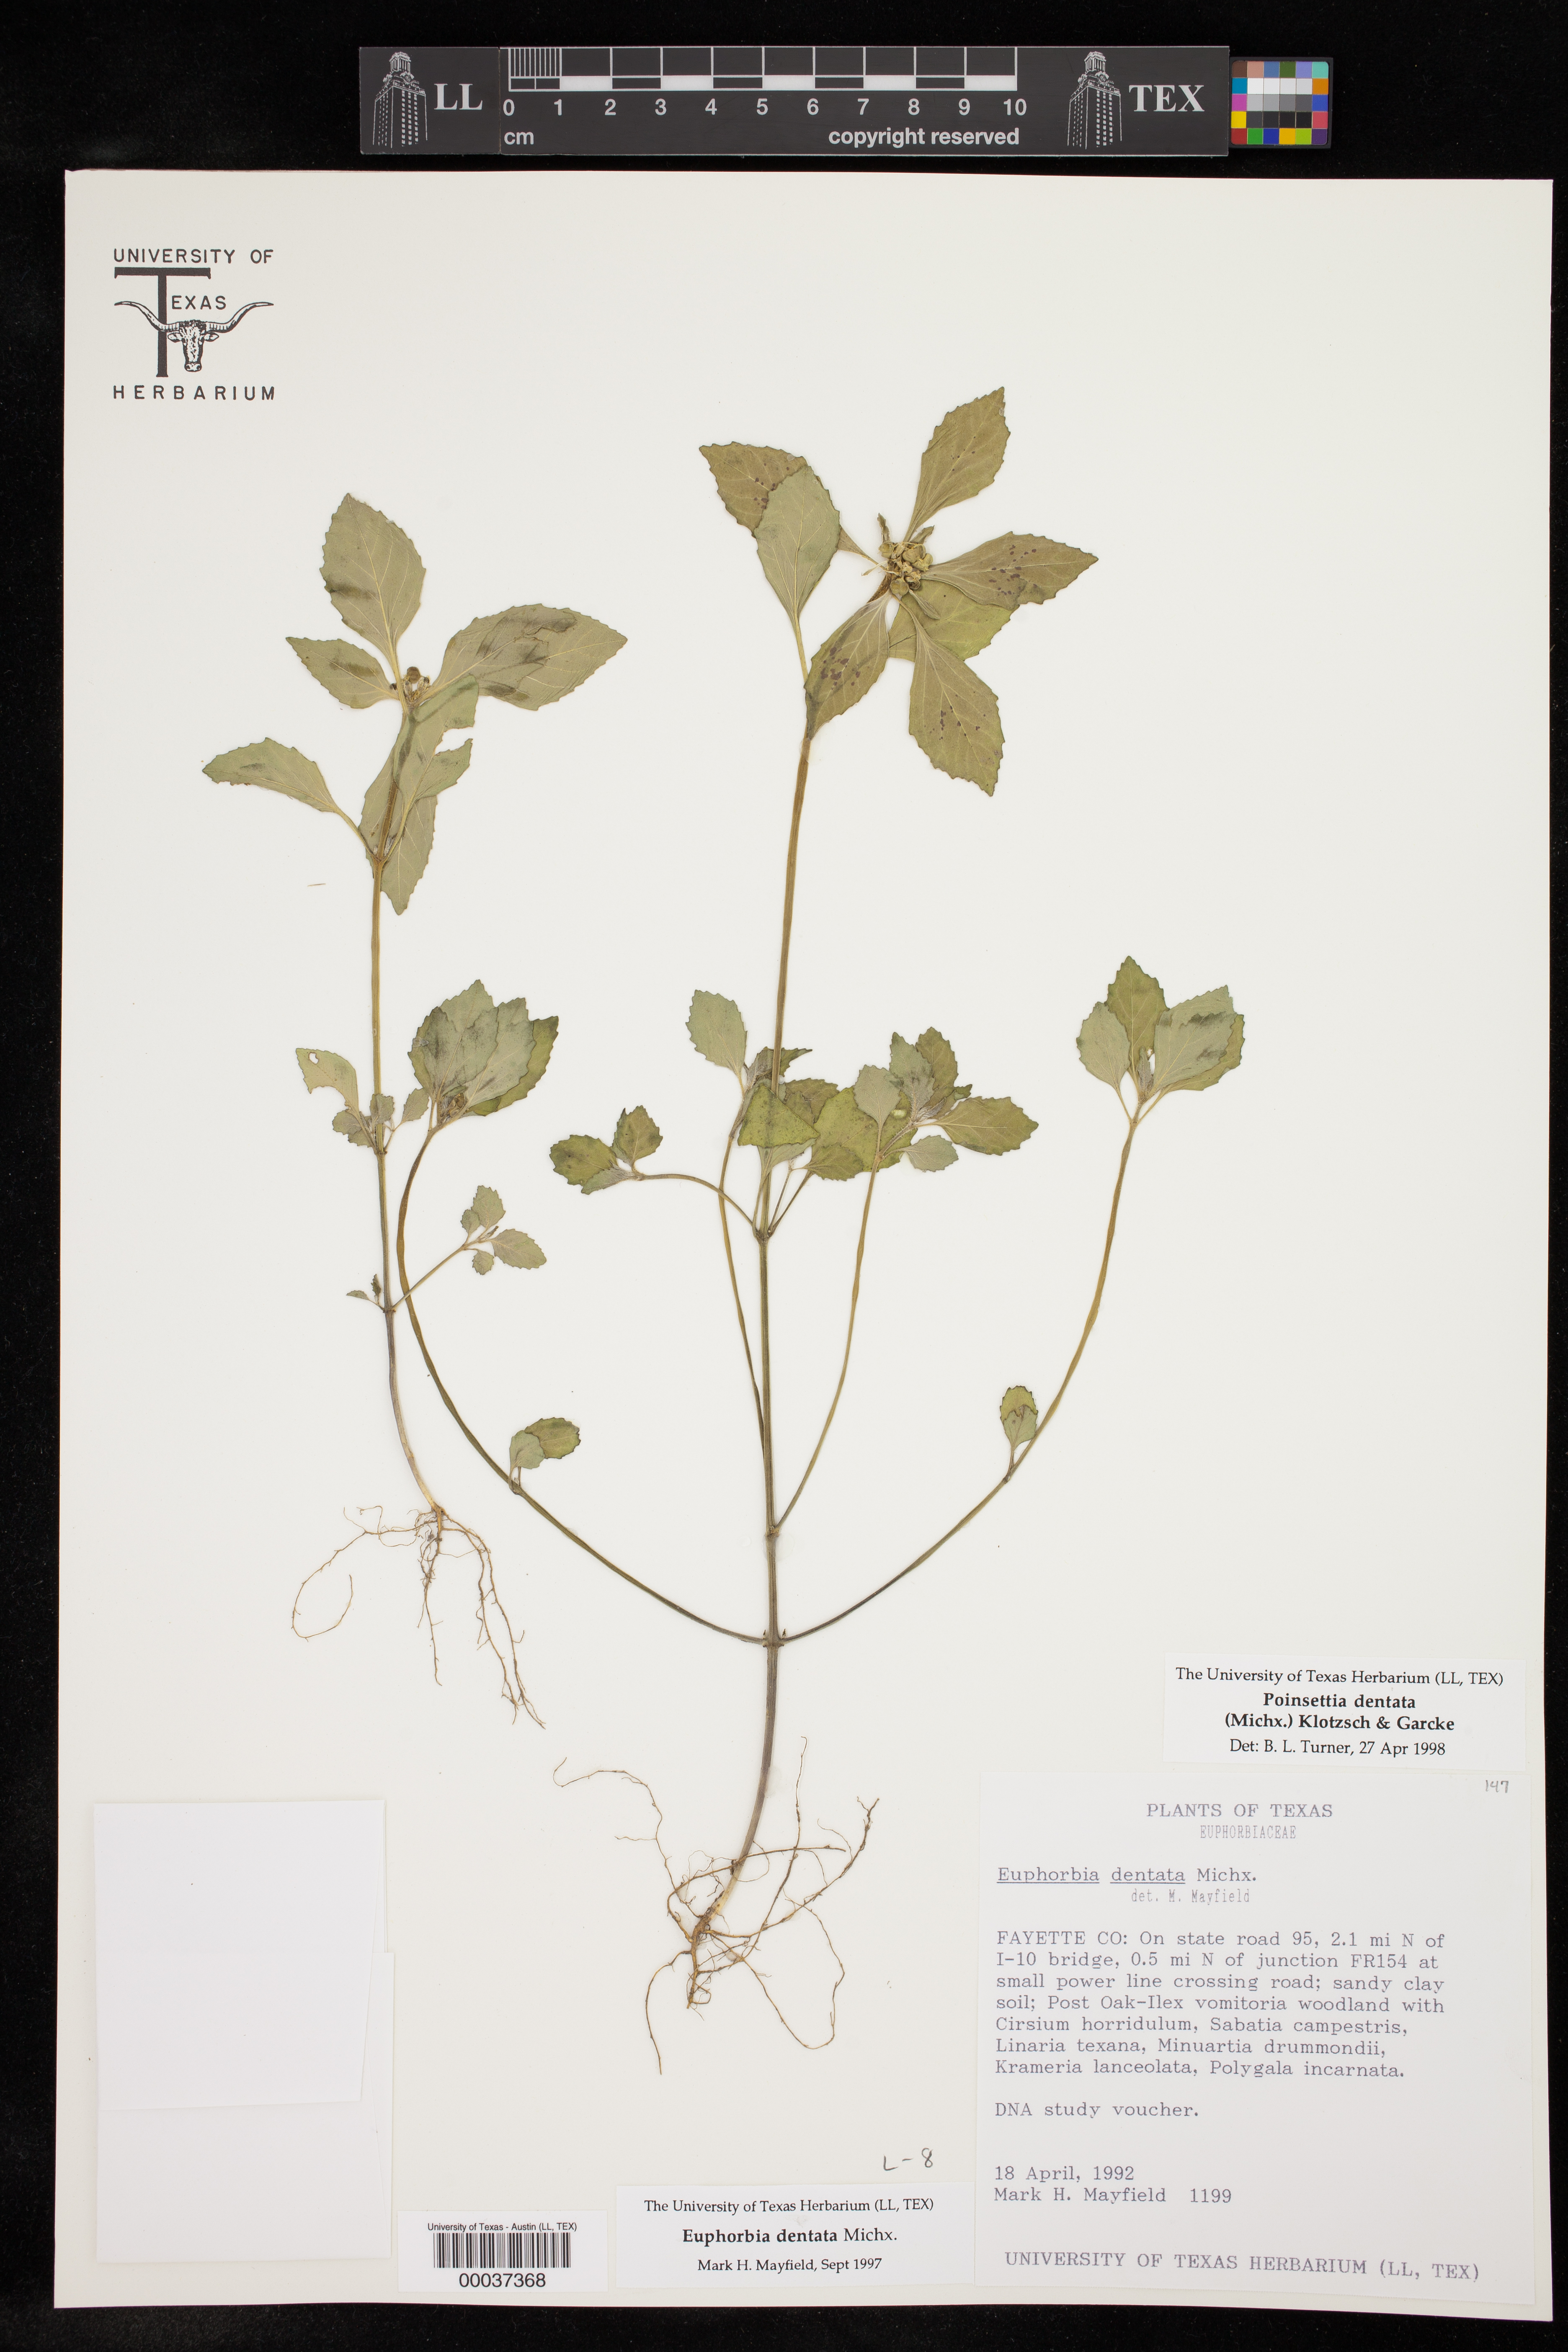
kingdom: Plantae
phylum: Tracheophyta
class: Magnoliopsida
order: Malpighiales
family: Euphorbiaceae
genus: Euphorbia
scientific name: Euphorbia dentata
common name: Dentate spurge
